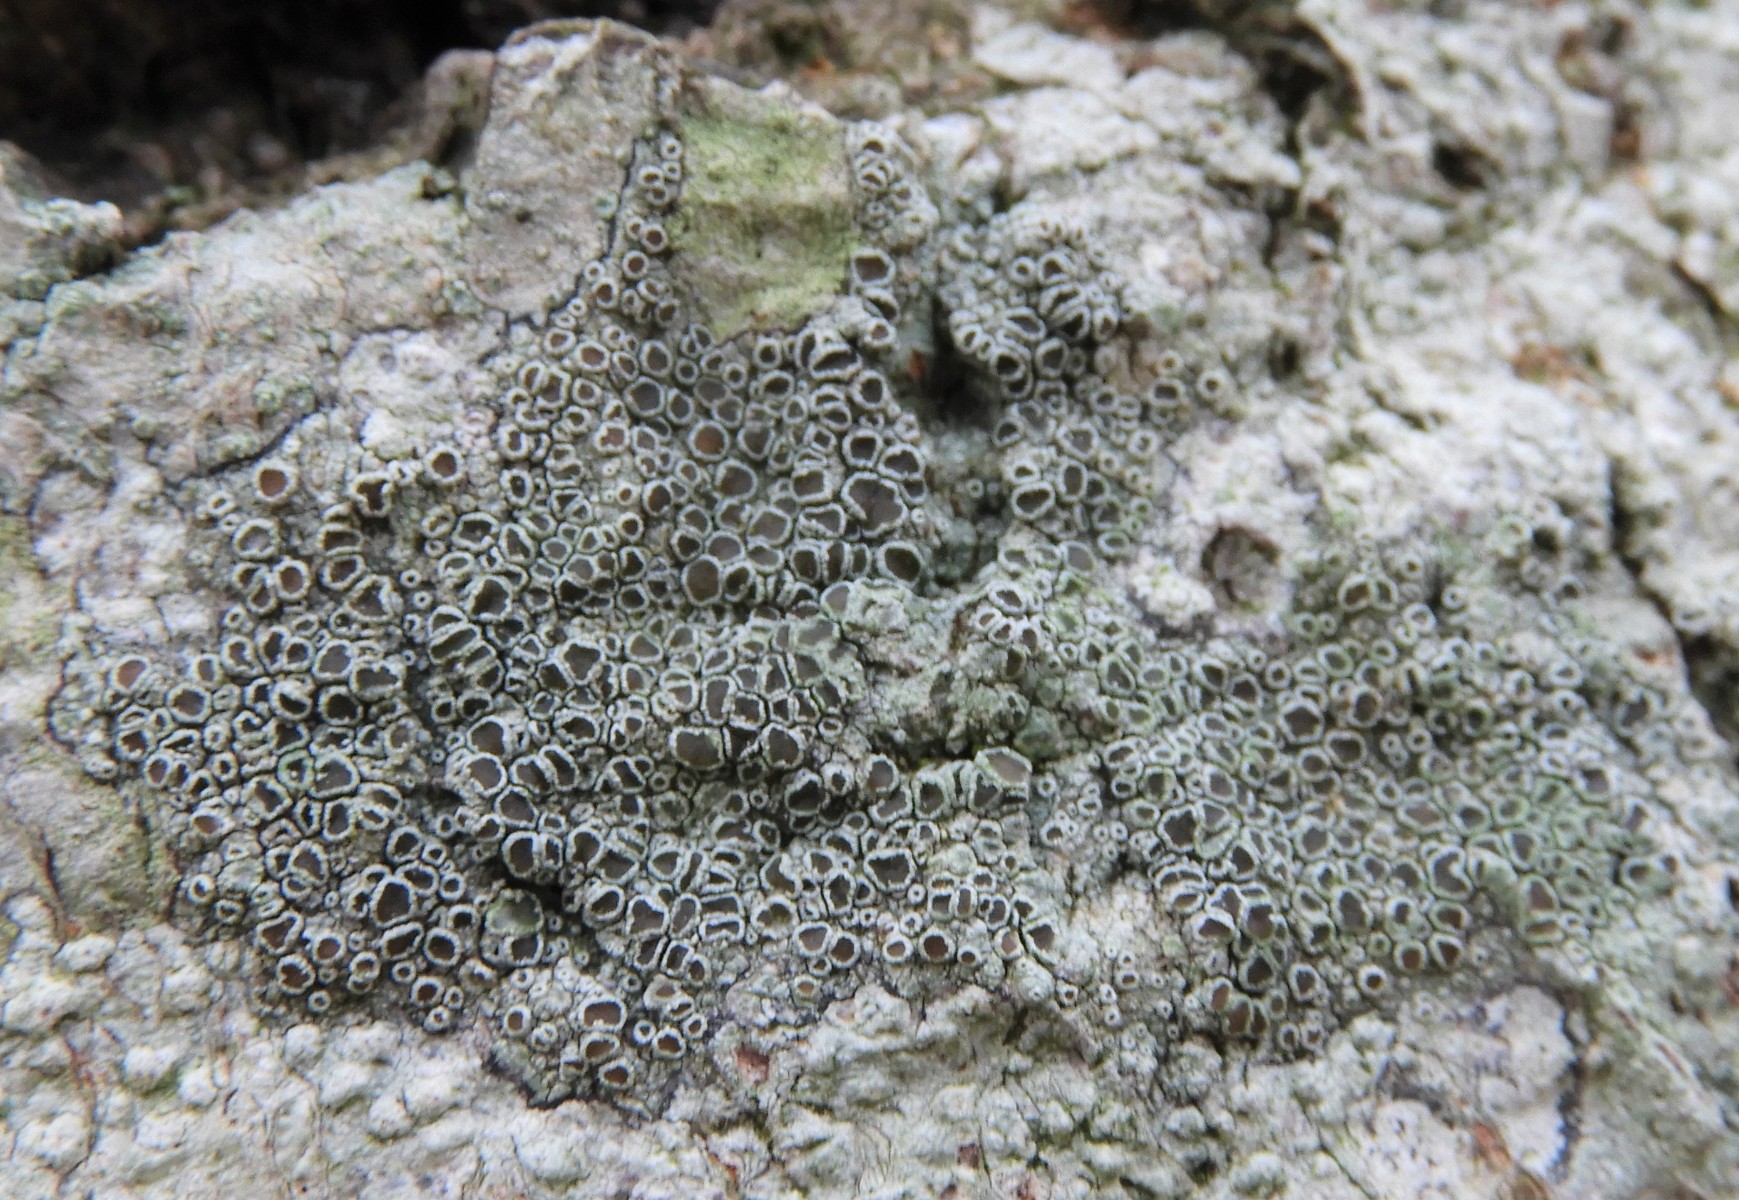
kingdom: Fungi
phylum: Ascomycota
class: Lecanoromycetes
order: Lecanorales
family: Lecanoraceae
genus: Lecanora
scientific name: Lecanora chlarotera
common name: brun kantskivelav
